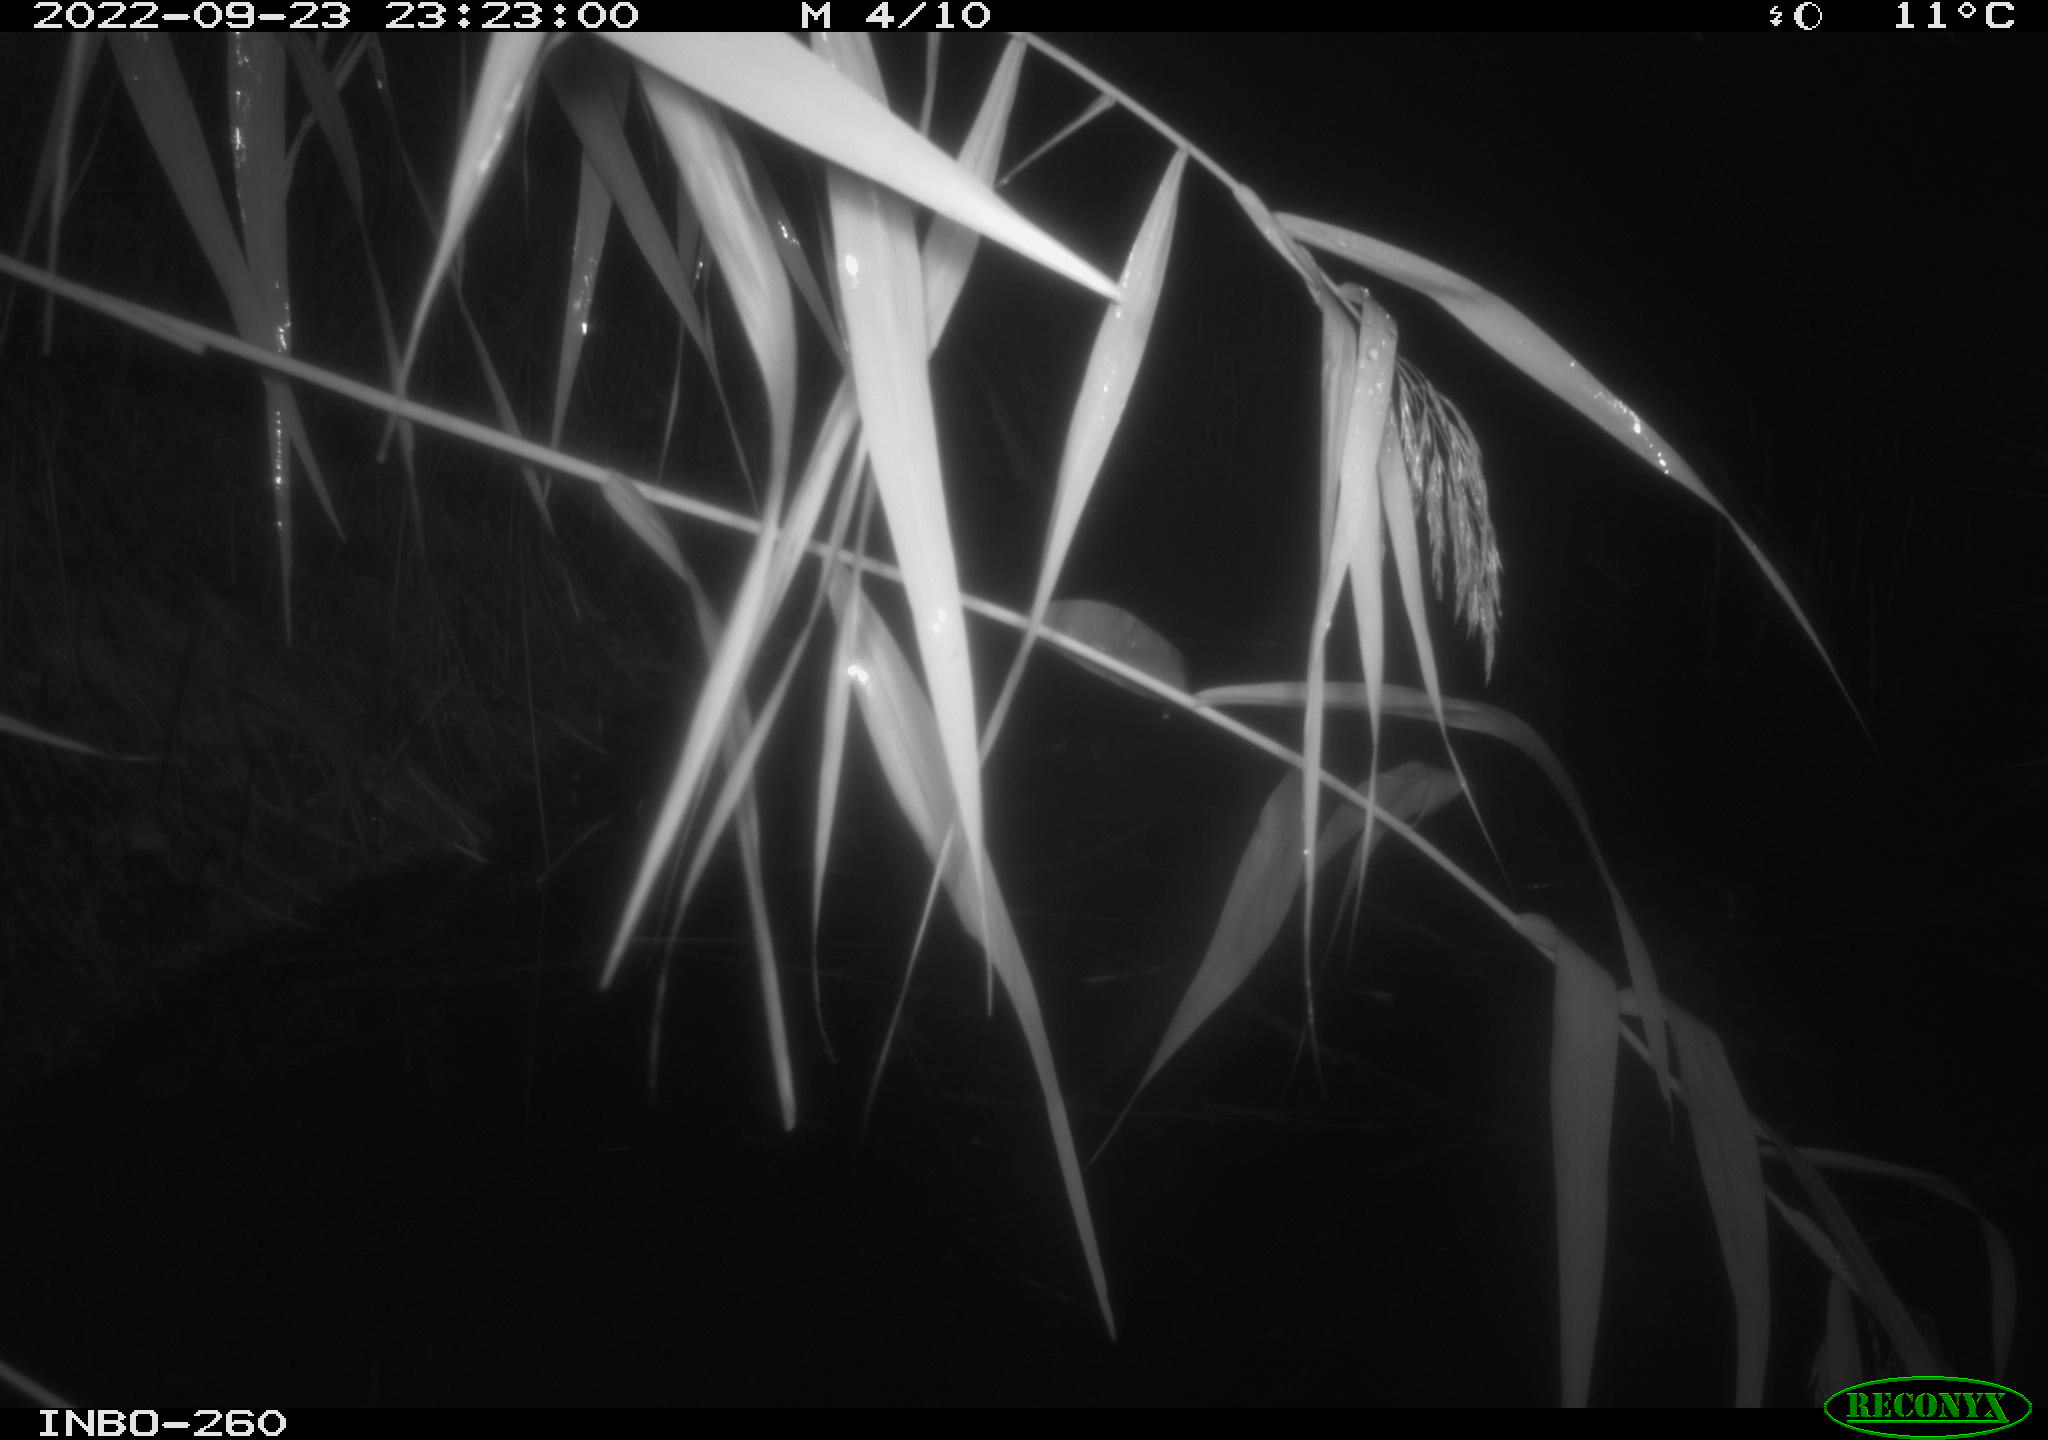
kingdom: Animalia
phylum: Chordata
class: Mammalia
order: Rodentia
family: Muridae
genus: Rattus
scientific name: Rattus norvegicus
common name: Brown rat
